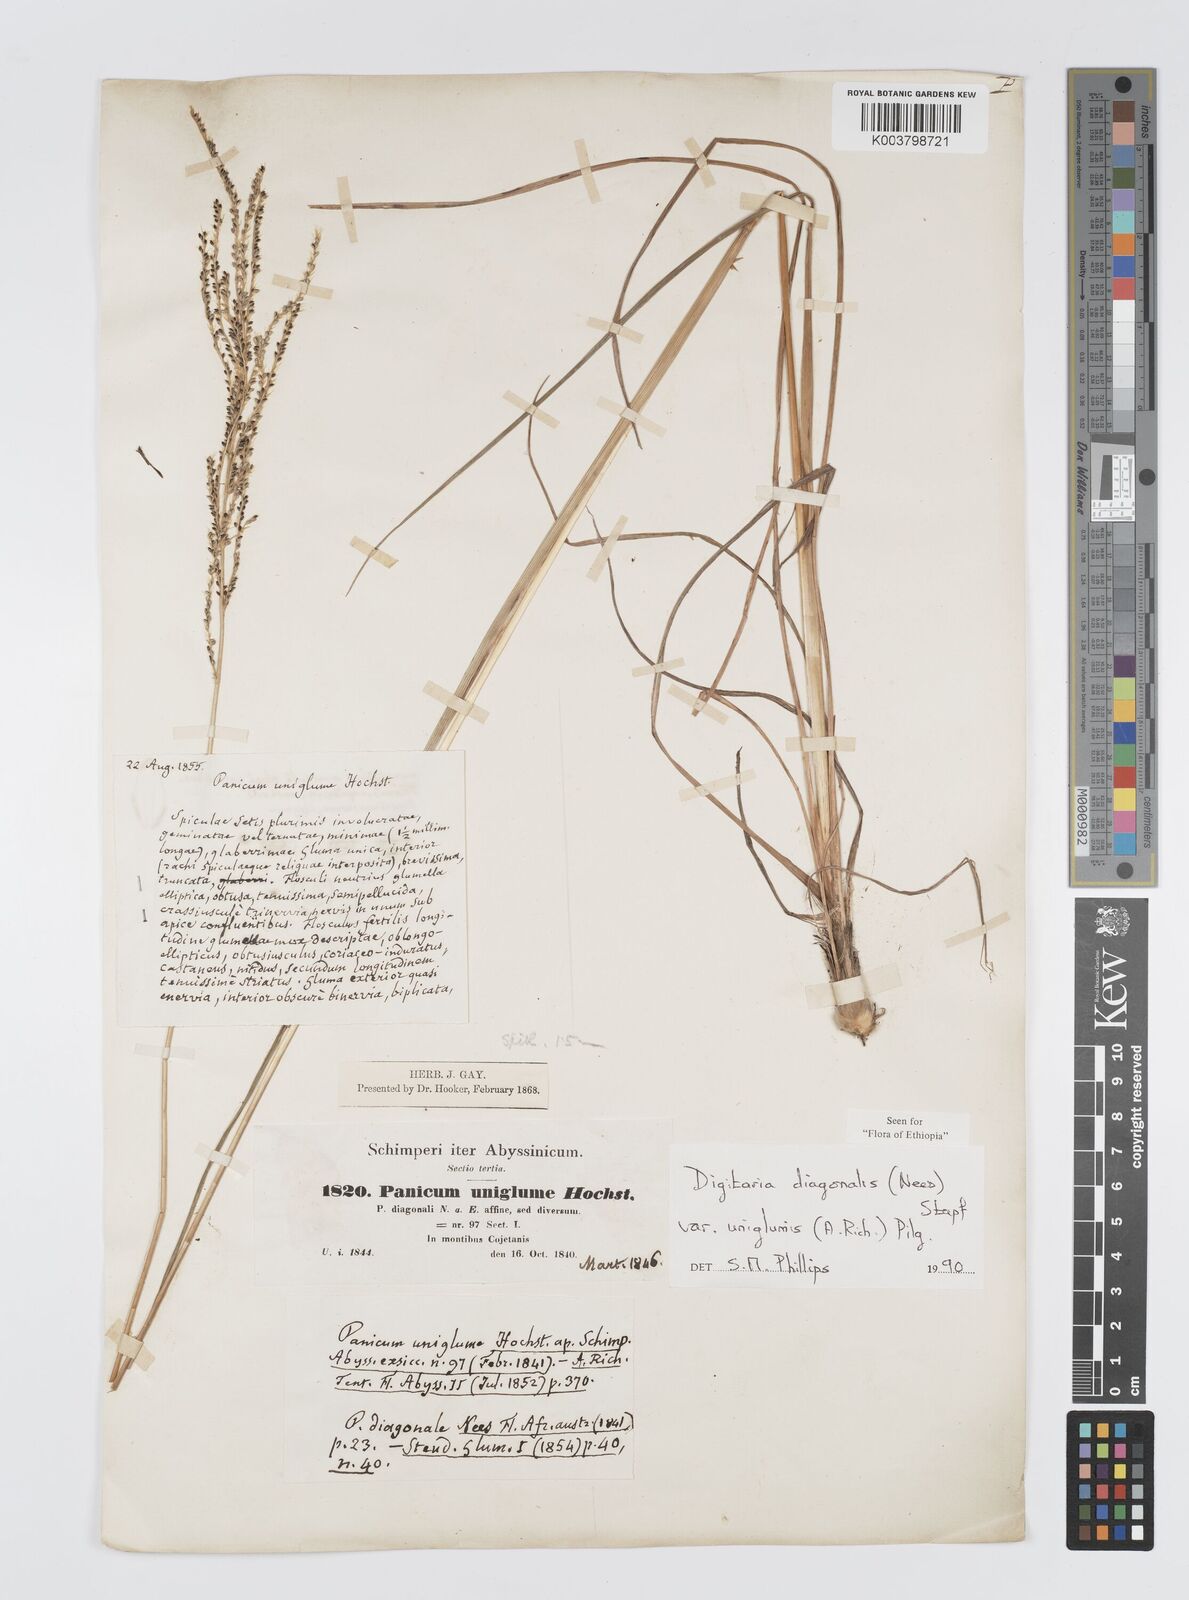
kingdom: Plantae
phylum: Tracheophyta
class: Liliopsida
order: Poales
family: Poaceae
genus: Digitaria
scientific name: Digitaria diagonalis
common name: Brown-seed finger grass
